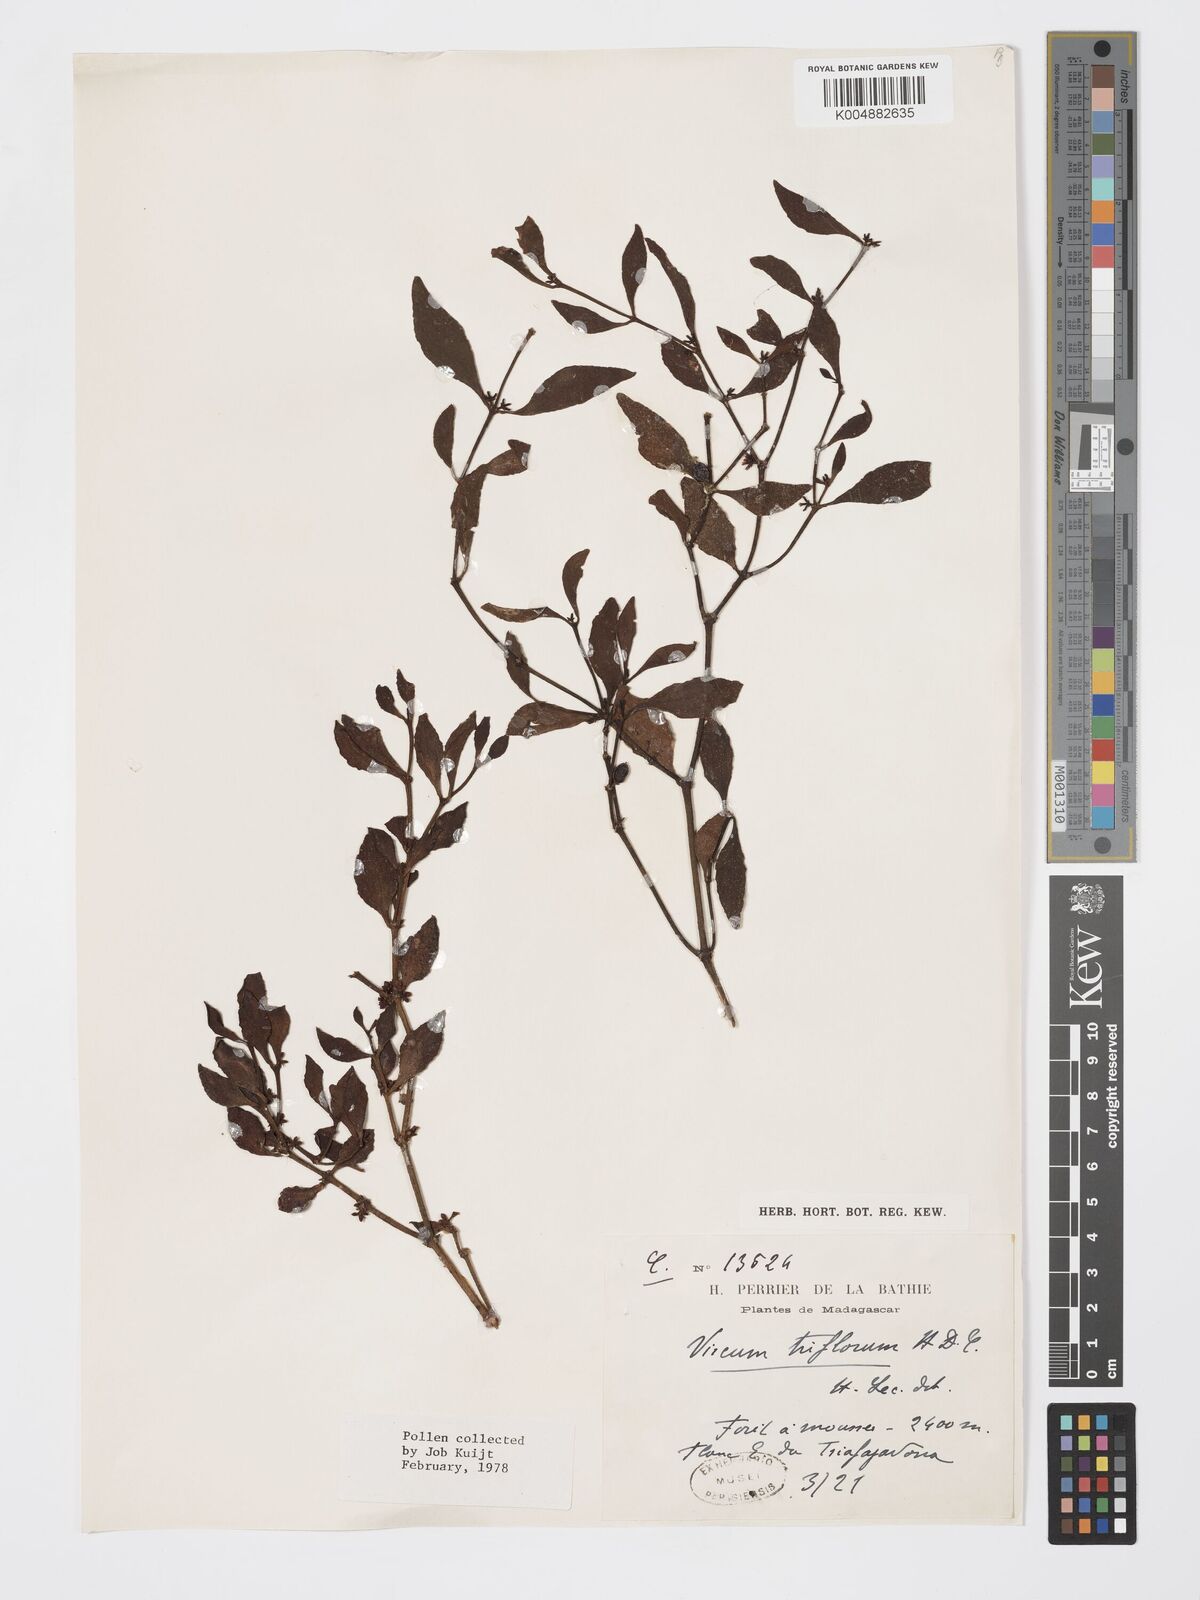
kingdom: Plantae
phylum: Tracheophyta
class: Magnoliopsida
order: Santalales
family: Viscaceae
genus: Viscum
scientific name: Viscum triflorum
